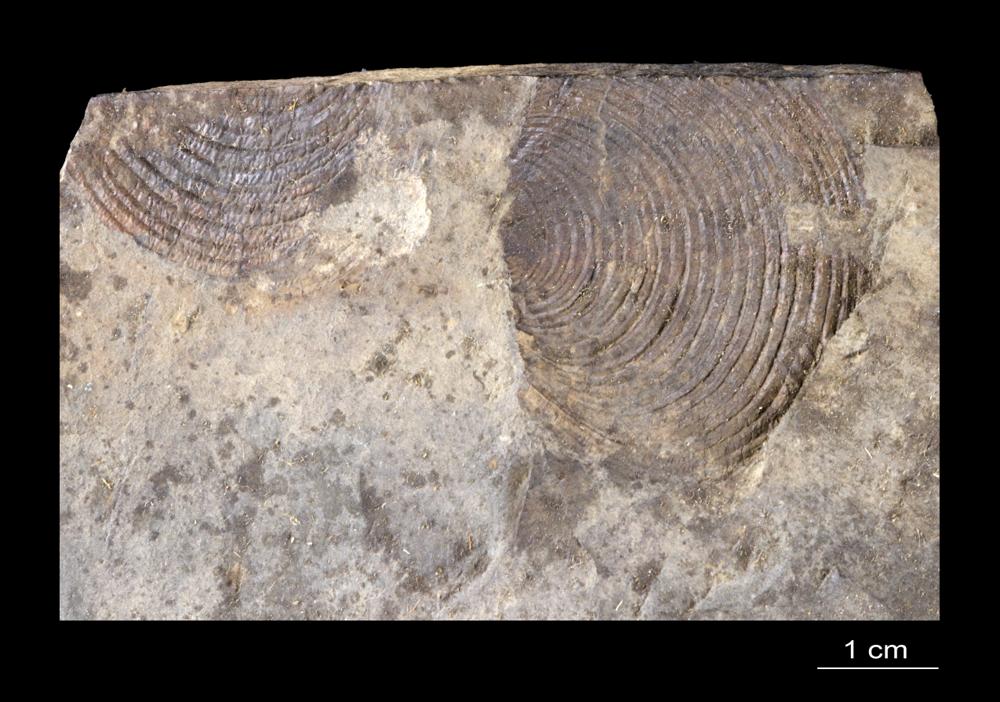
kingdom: Animalia
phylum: Mollusca
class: Bivalvia
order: Ostreida
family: Posidoniidae
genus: Posidonia
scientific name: Posidonia becheri
